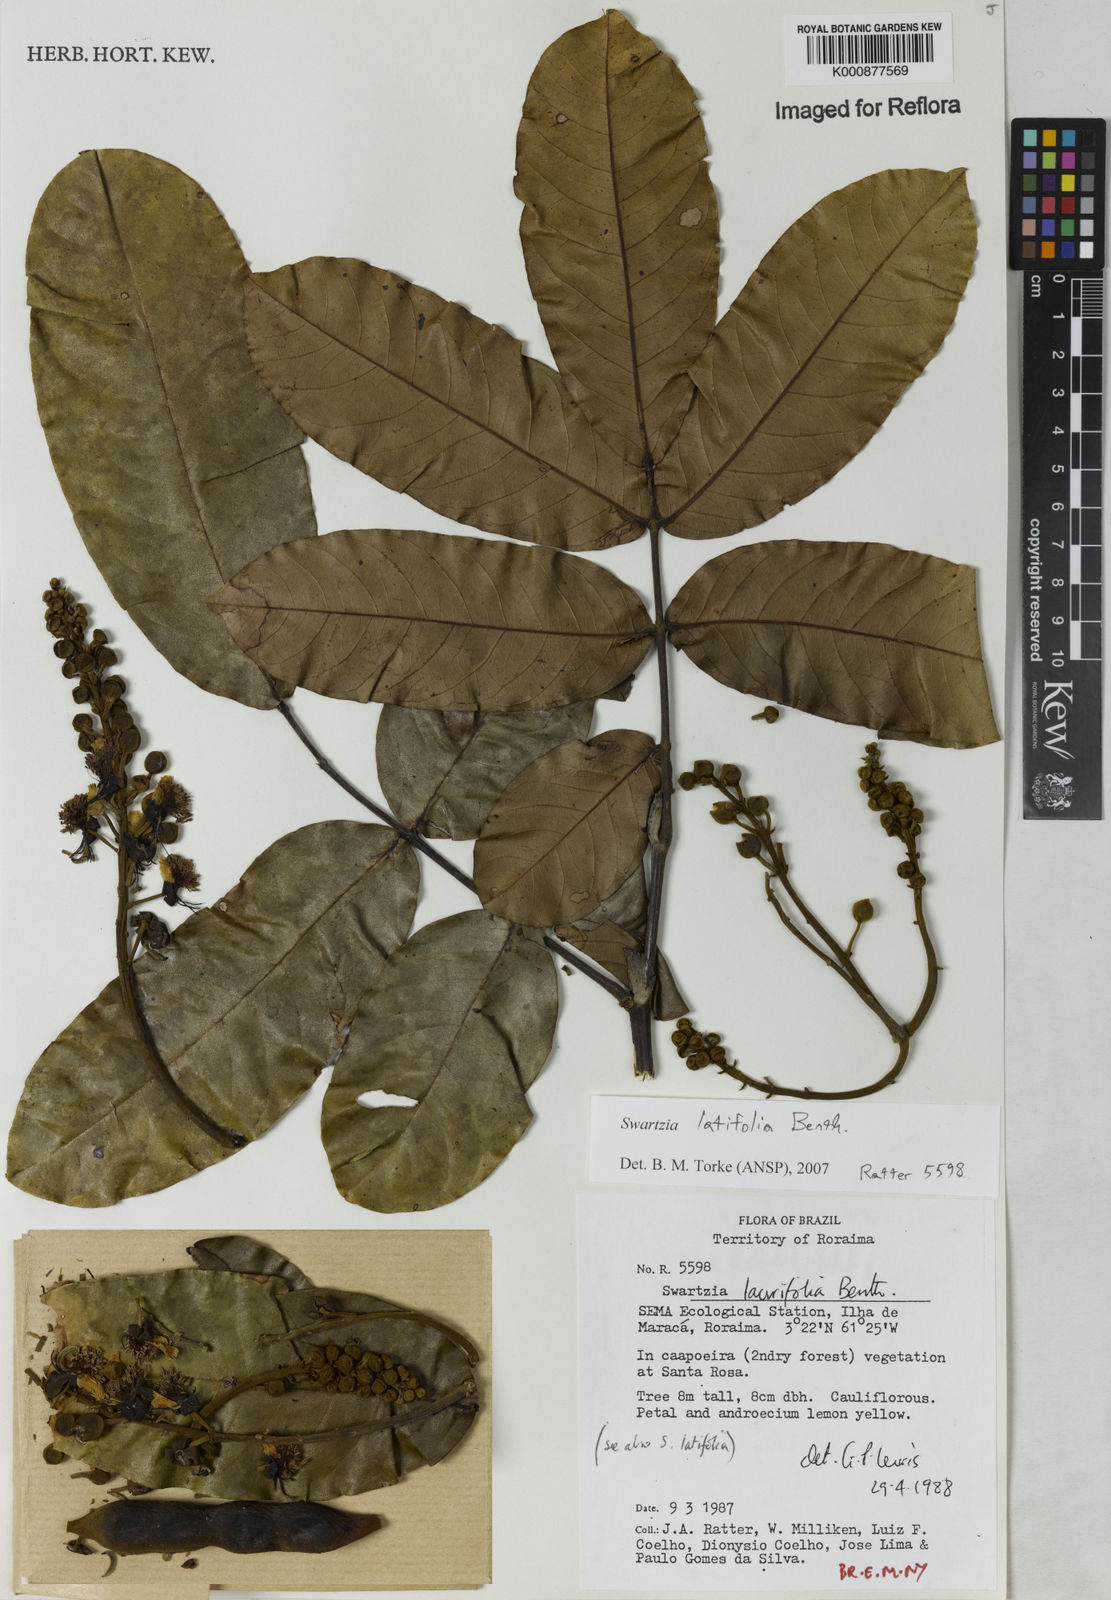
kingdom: Plantae
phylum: Tracheophyta
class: Magnoliopsida
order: Fabales
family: Fabaceae
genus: Swartzia
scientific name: Swartzia latifolia
